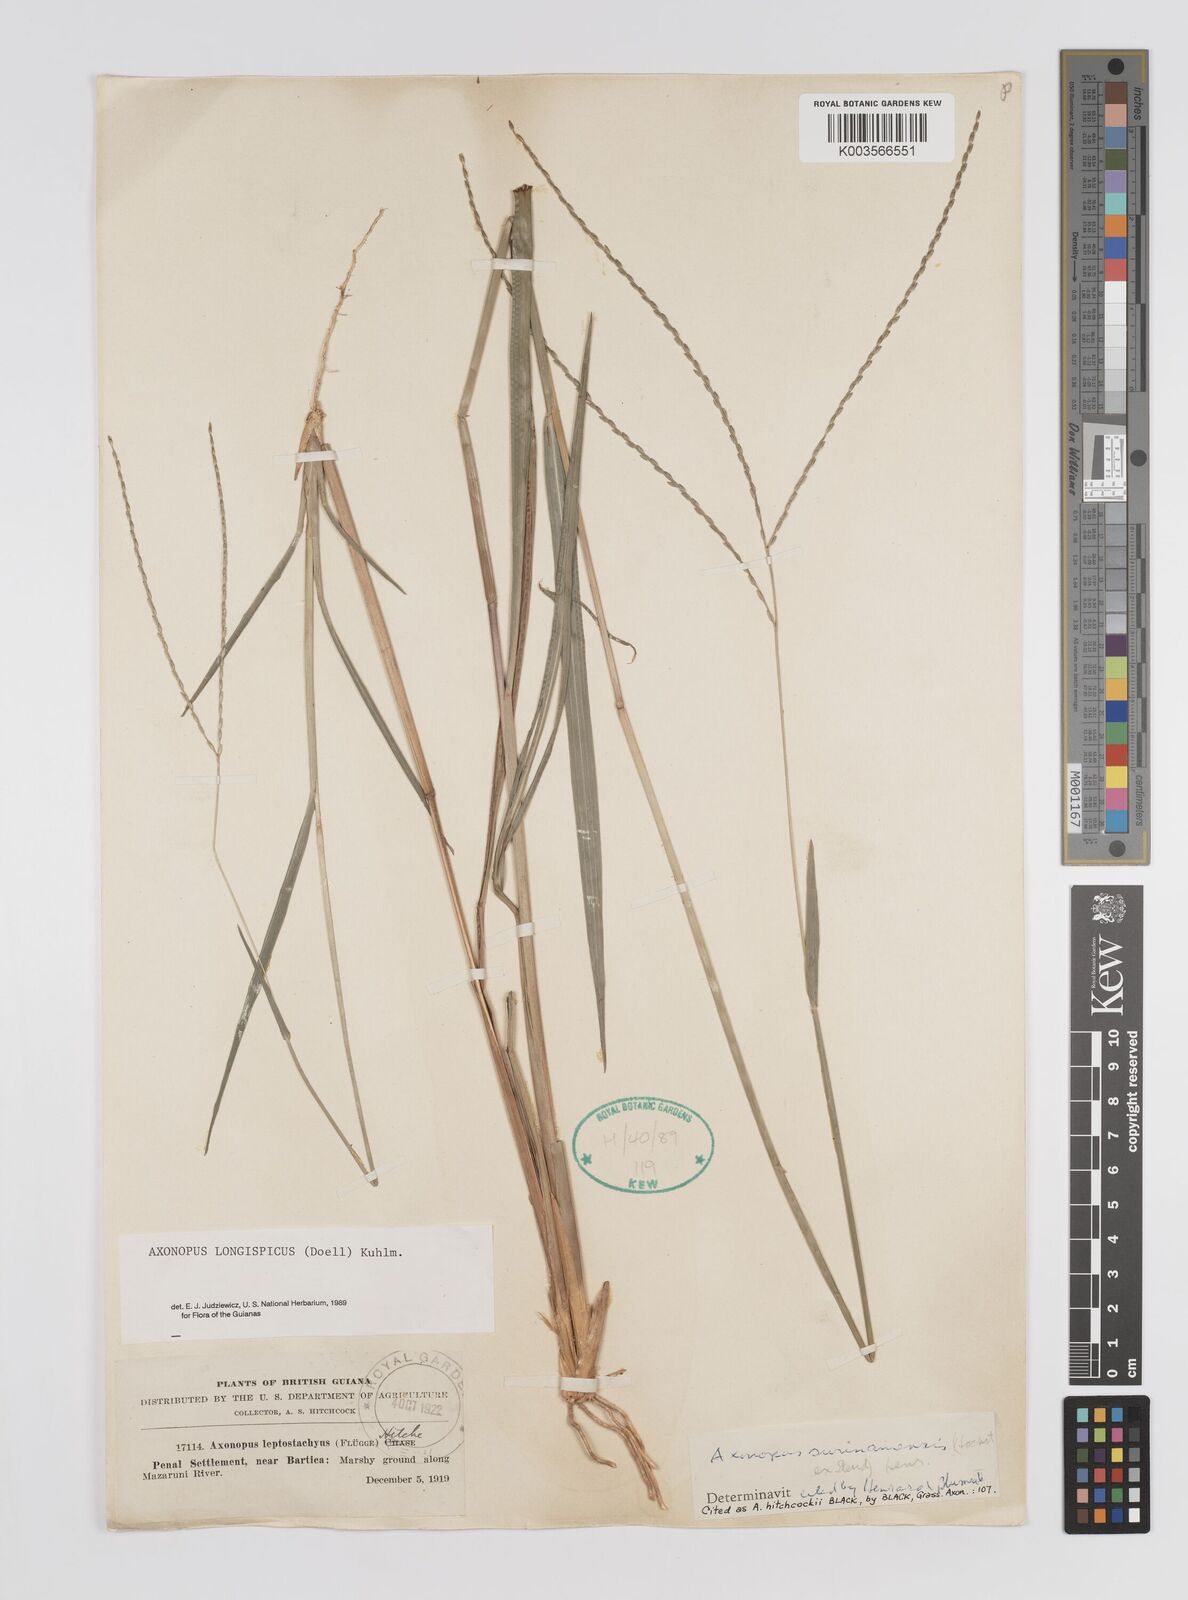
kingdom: Plantae
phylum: Tracheophyta
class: Liliopsida
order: Poales
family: Poaceae
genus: Axonopus
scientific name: Axonopus longispicus
